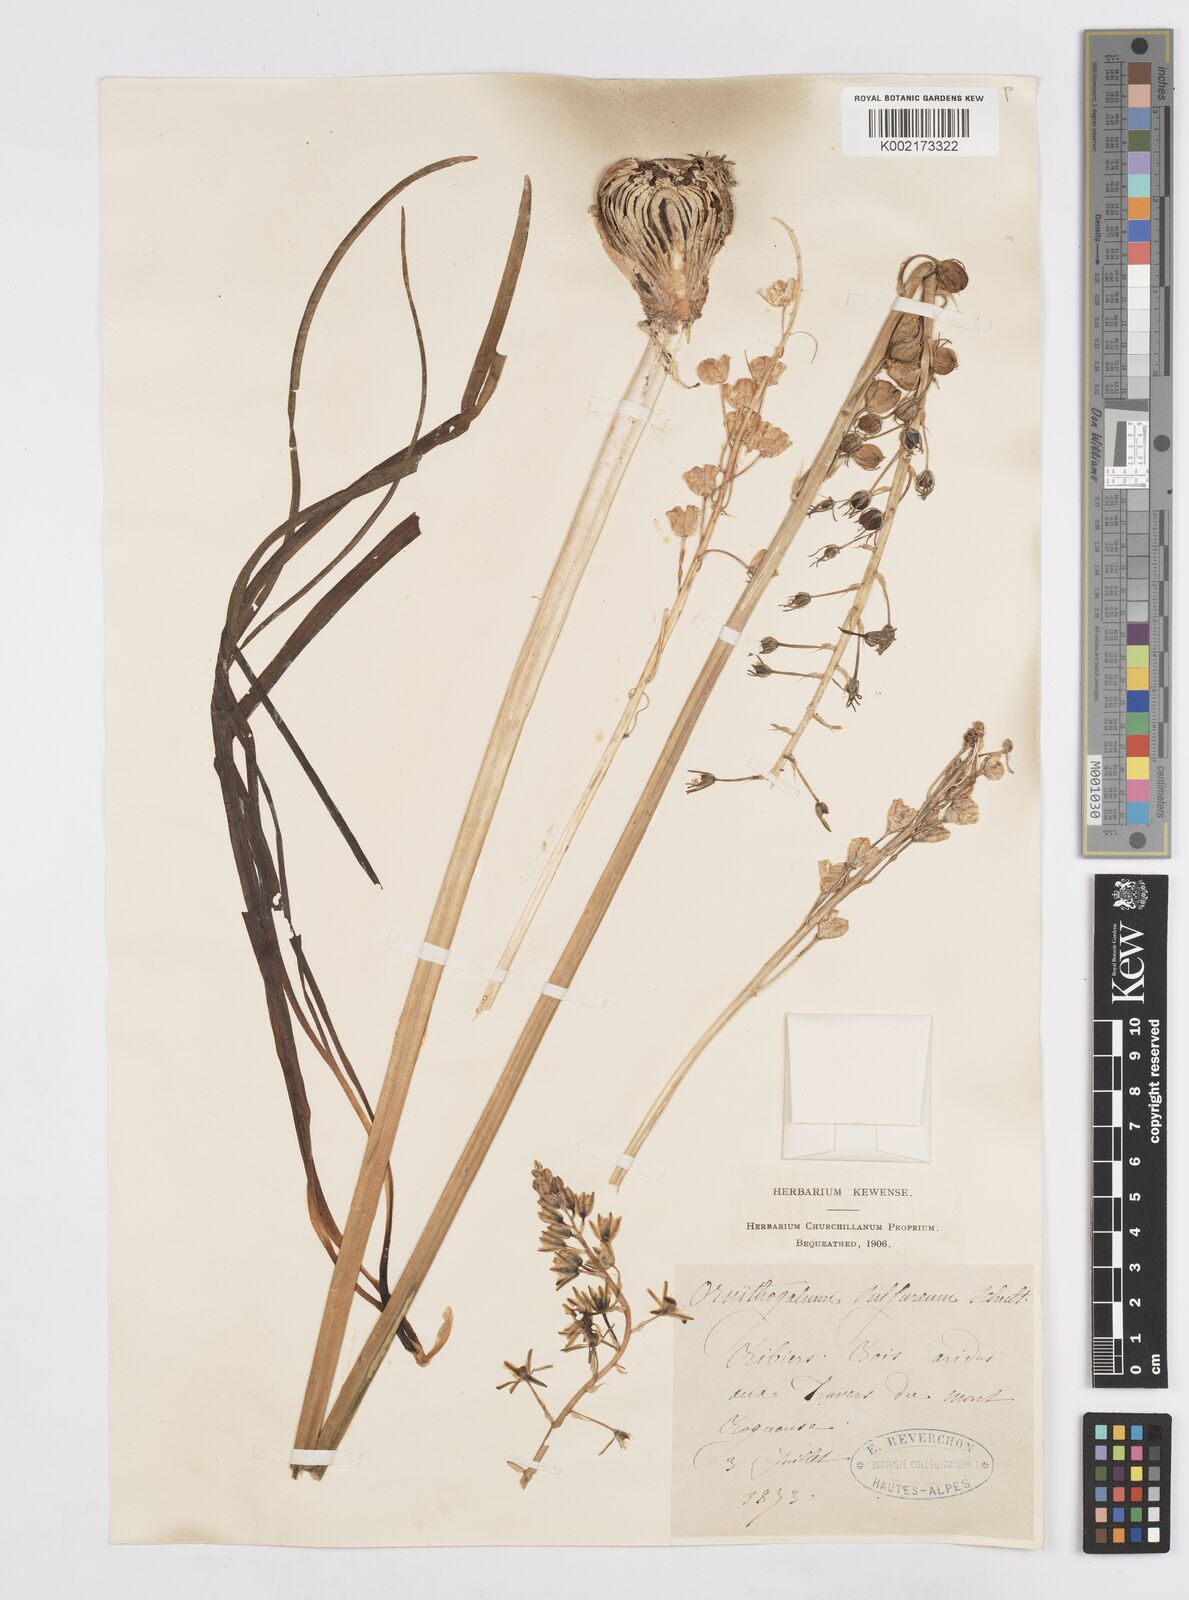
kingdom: Plantae
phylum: Tracheophyta
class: Liliopsida
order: Asparagales
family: Asparagaceae
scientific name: Asparagaceae
